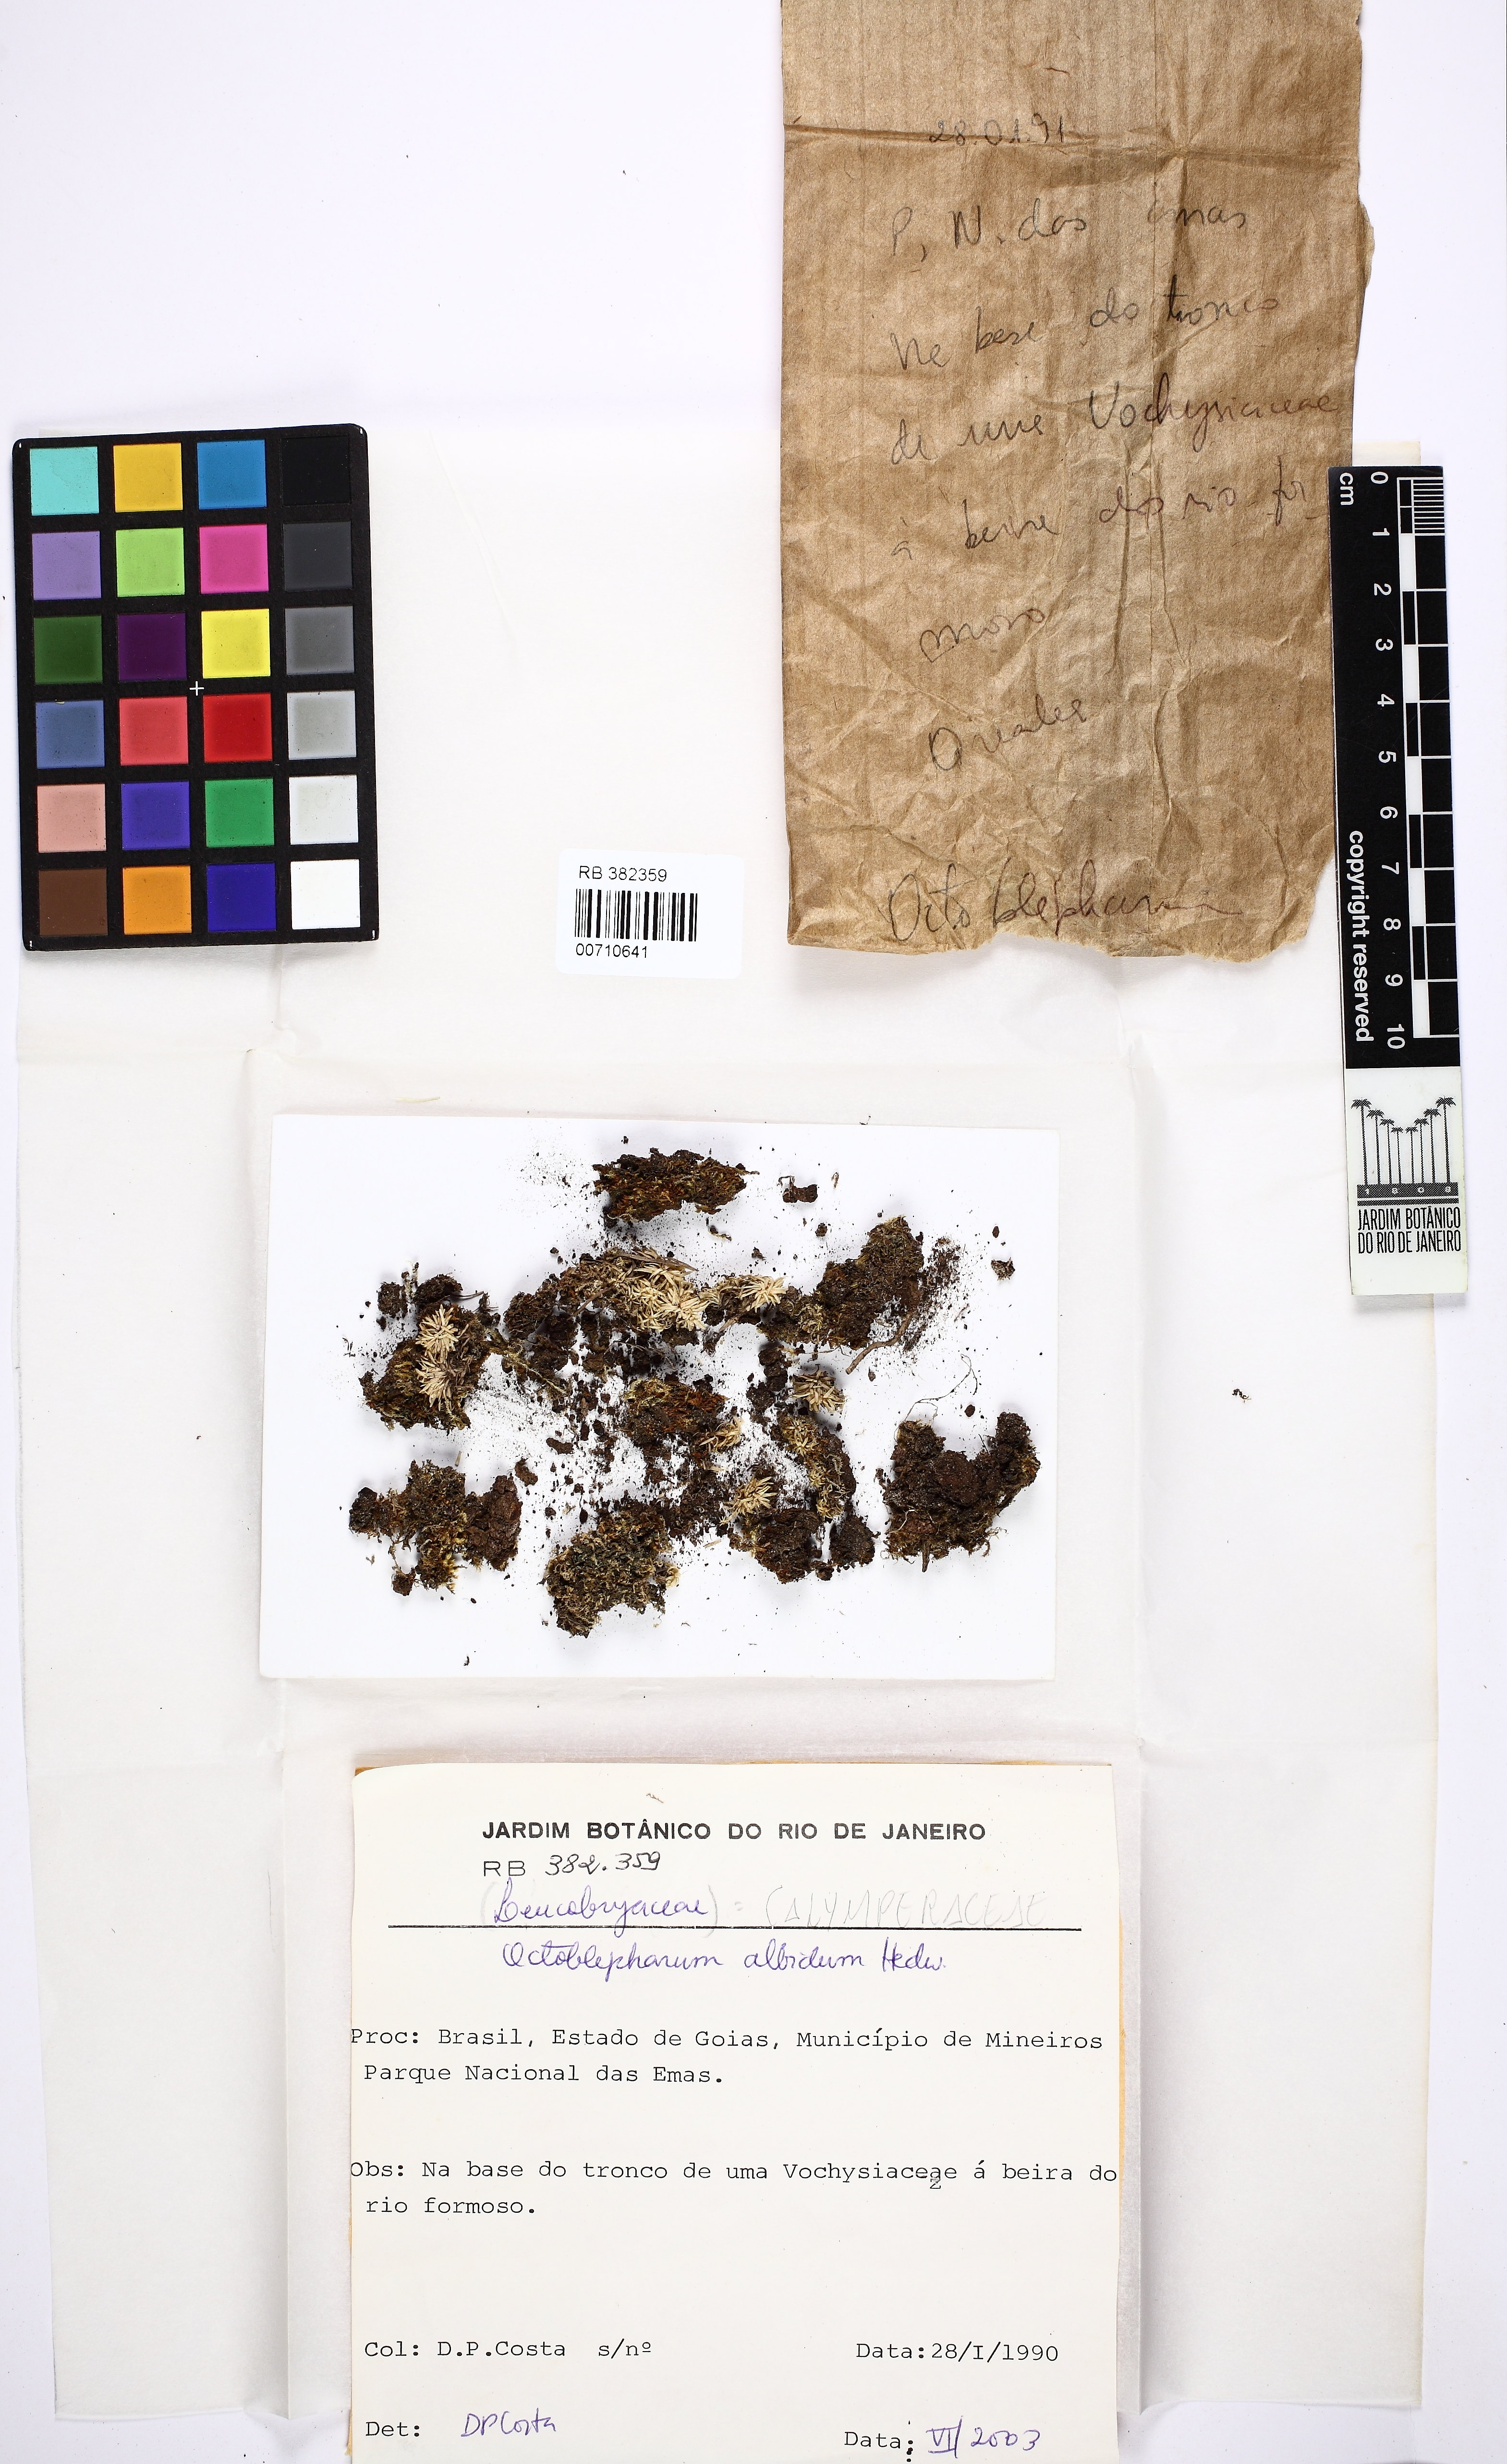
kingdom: Plantae
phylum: Bryophyta
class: Bryopsida
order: Dicranales
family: Octoblepharaceae
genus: Octoblepharum
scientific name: Octoblepharum albidum
